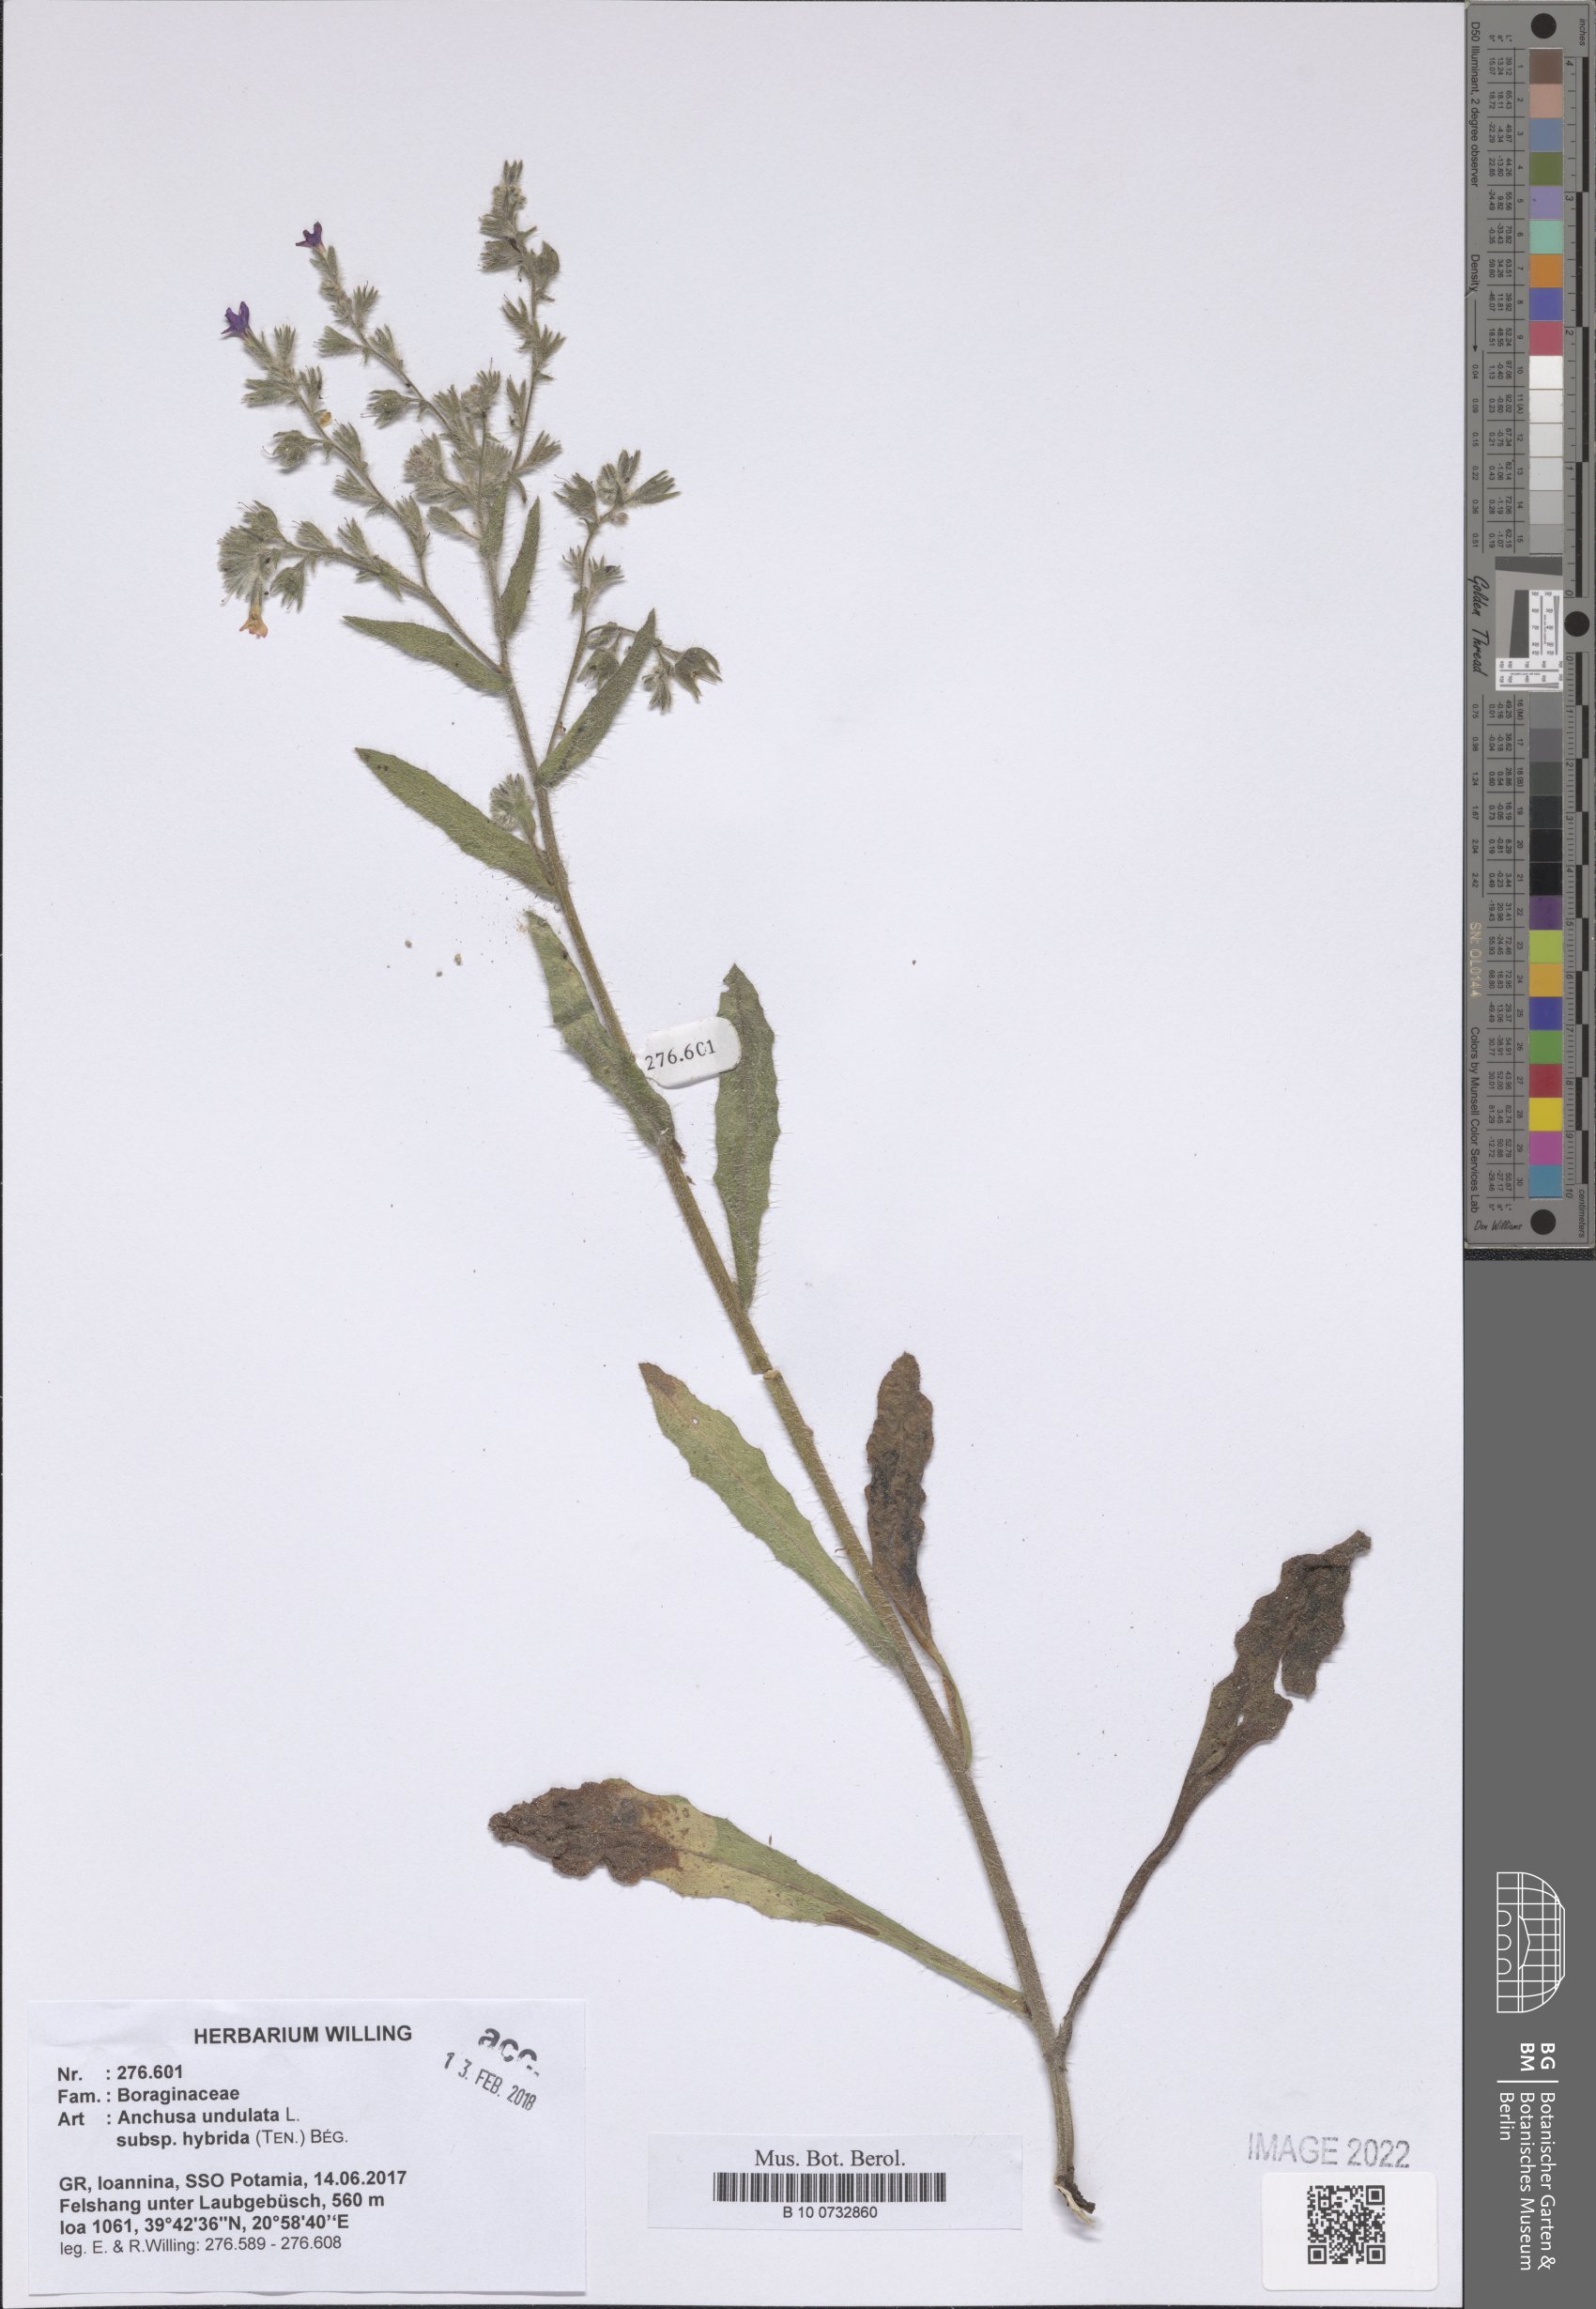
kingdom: Plantae
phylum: Tracheophyta
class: Magnoliopsida
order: Boraginales
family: Boraginaceae
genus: Anchusa
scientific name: Anchusa undulata
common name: Undulate alkanet
